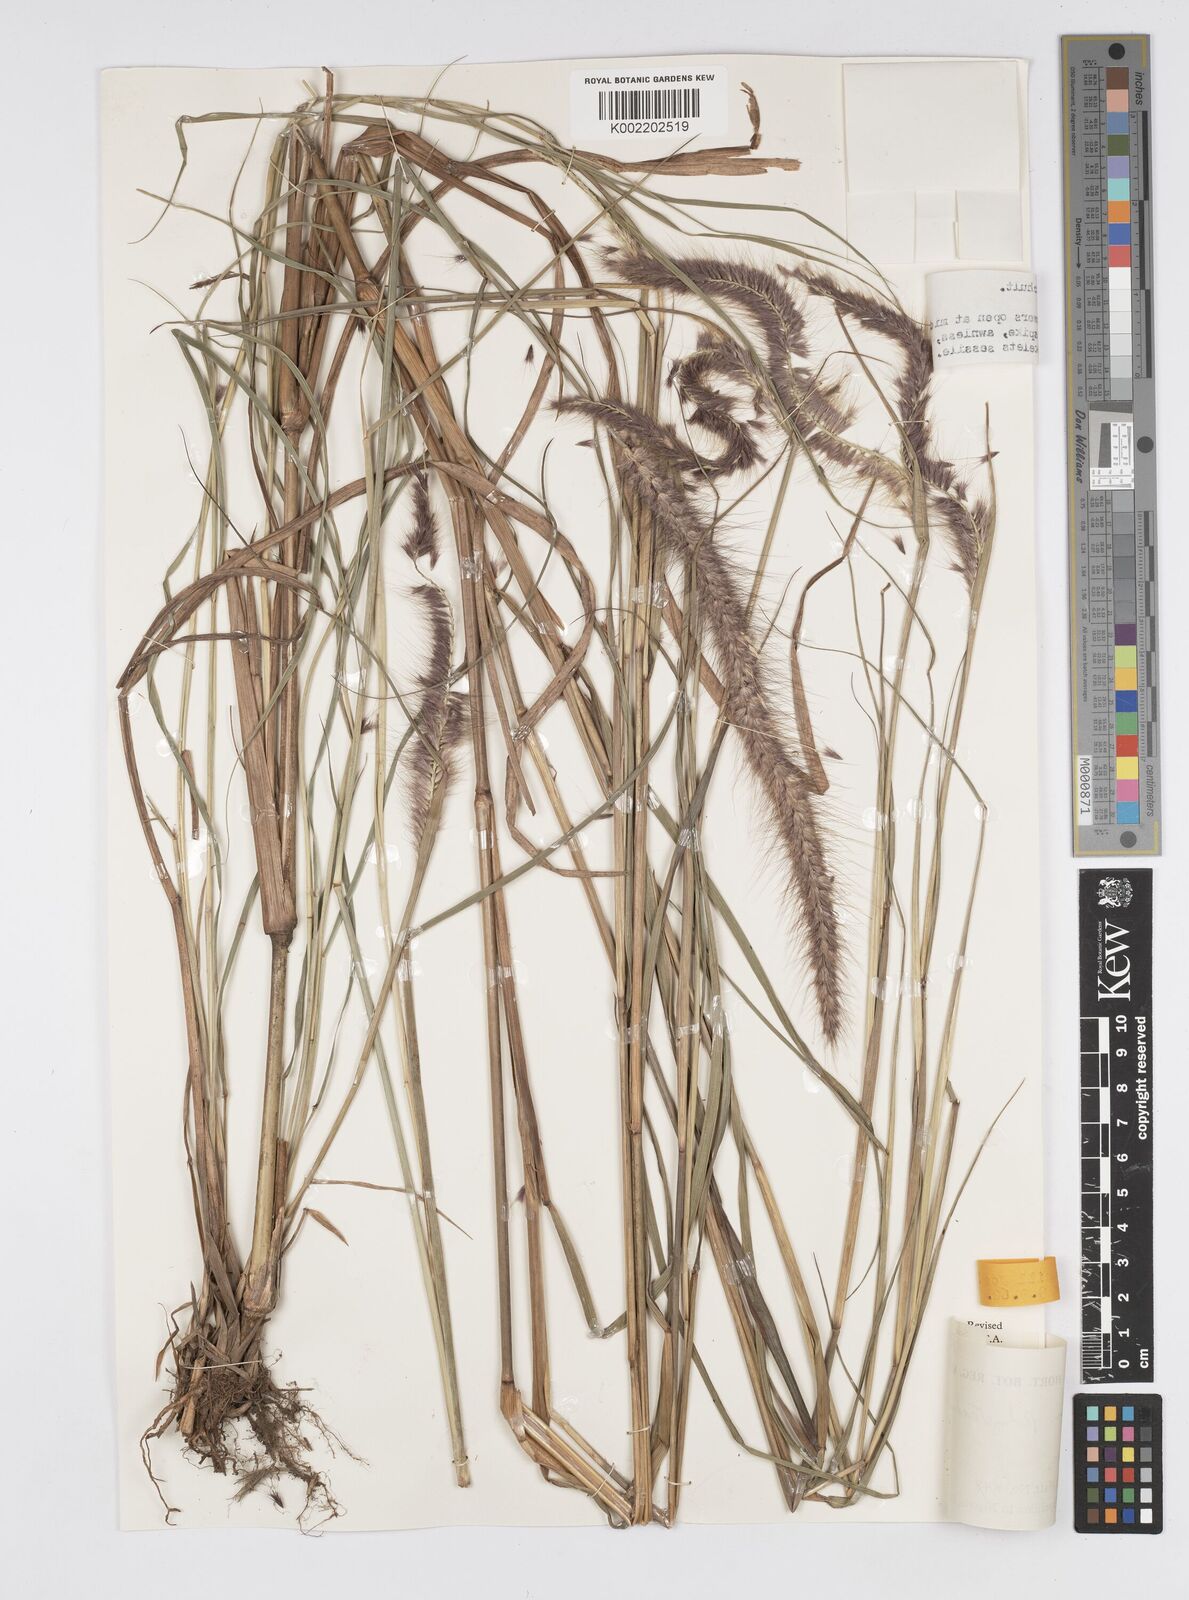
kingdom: Plantae
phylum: Tracheophyta
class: Liliopsida
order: Poales
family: Poaceae
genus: Cenchrus
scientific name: Cenchrus Pennisetum spec
